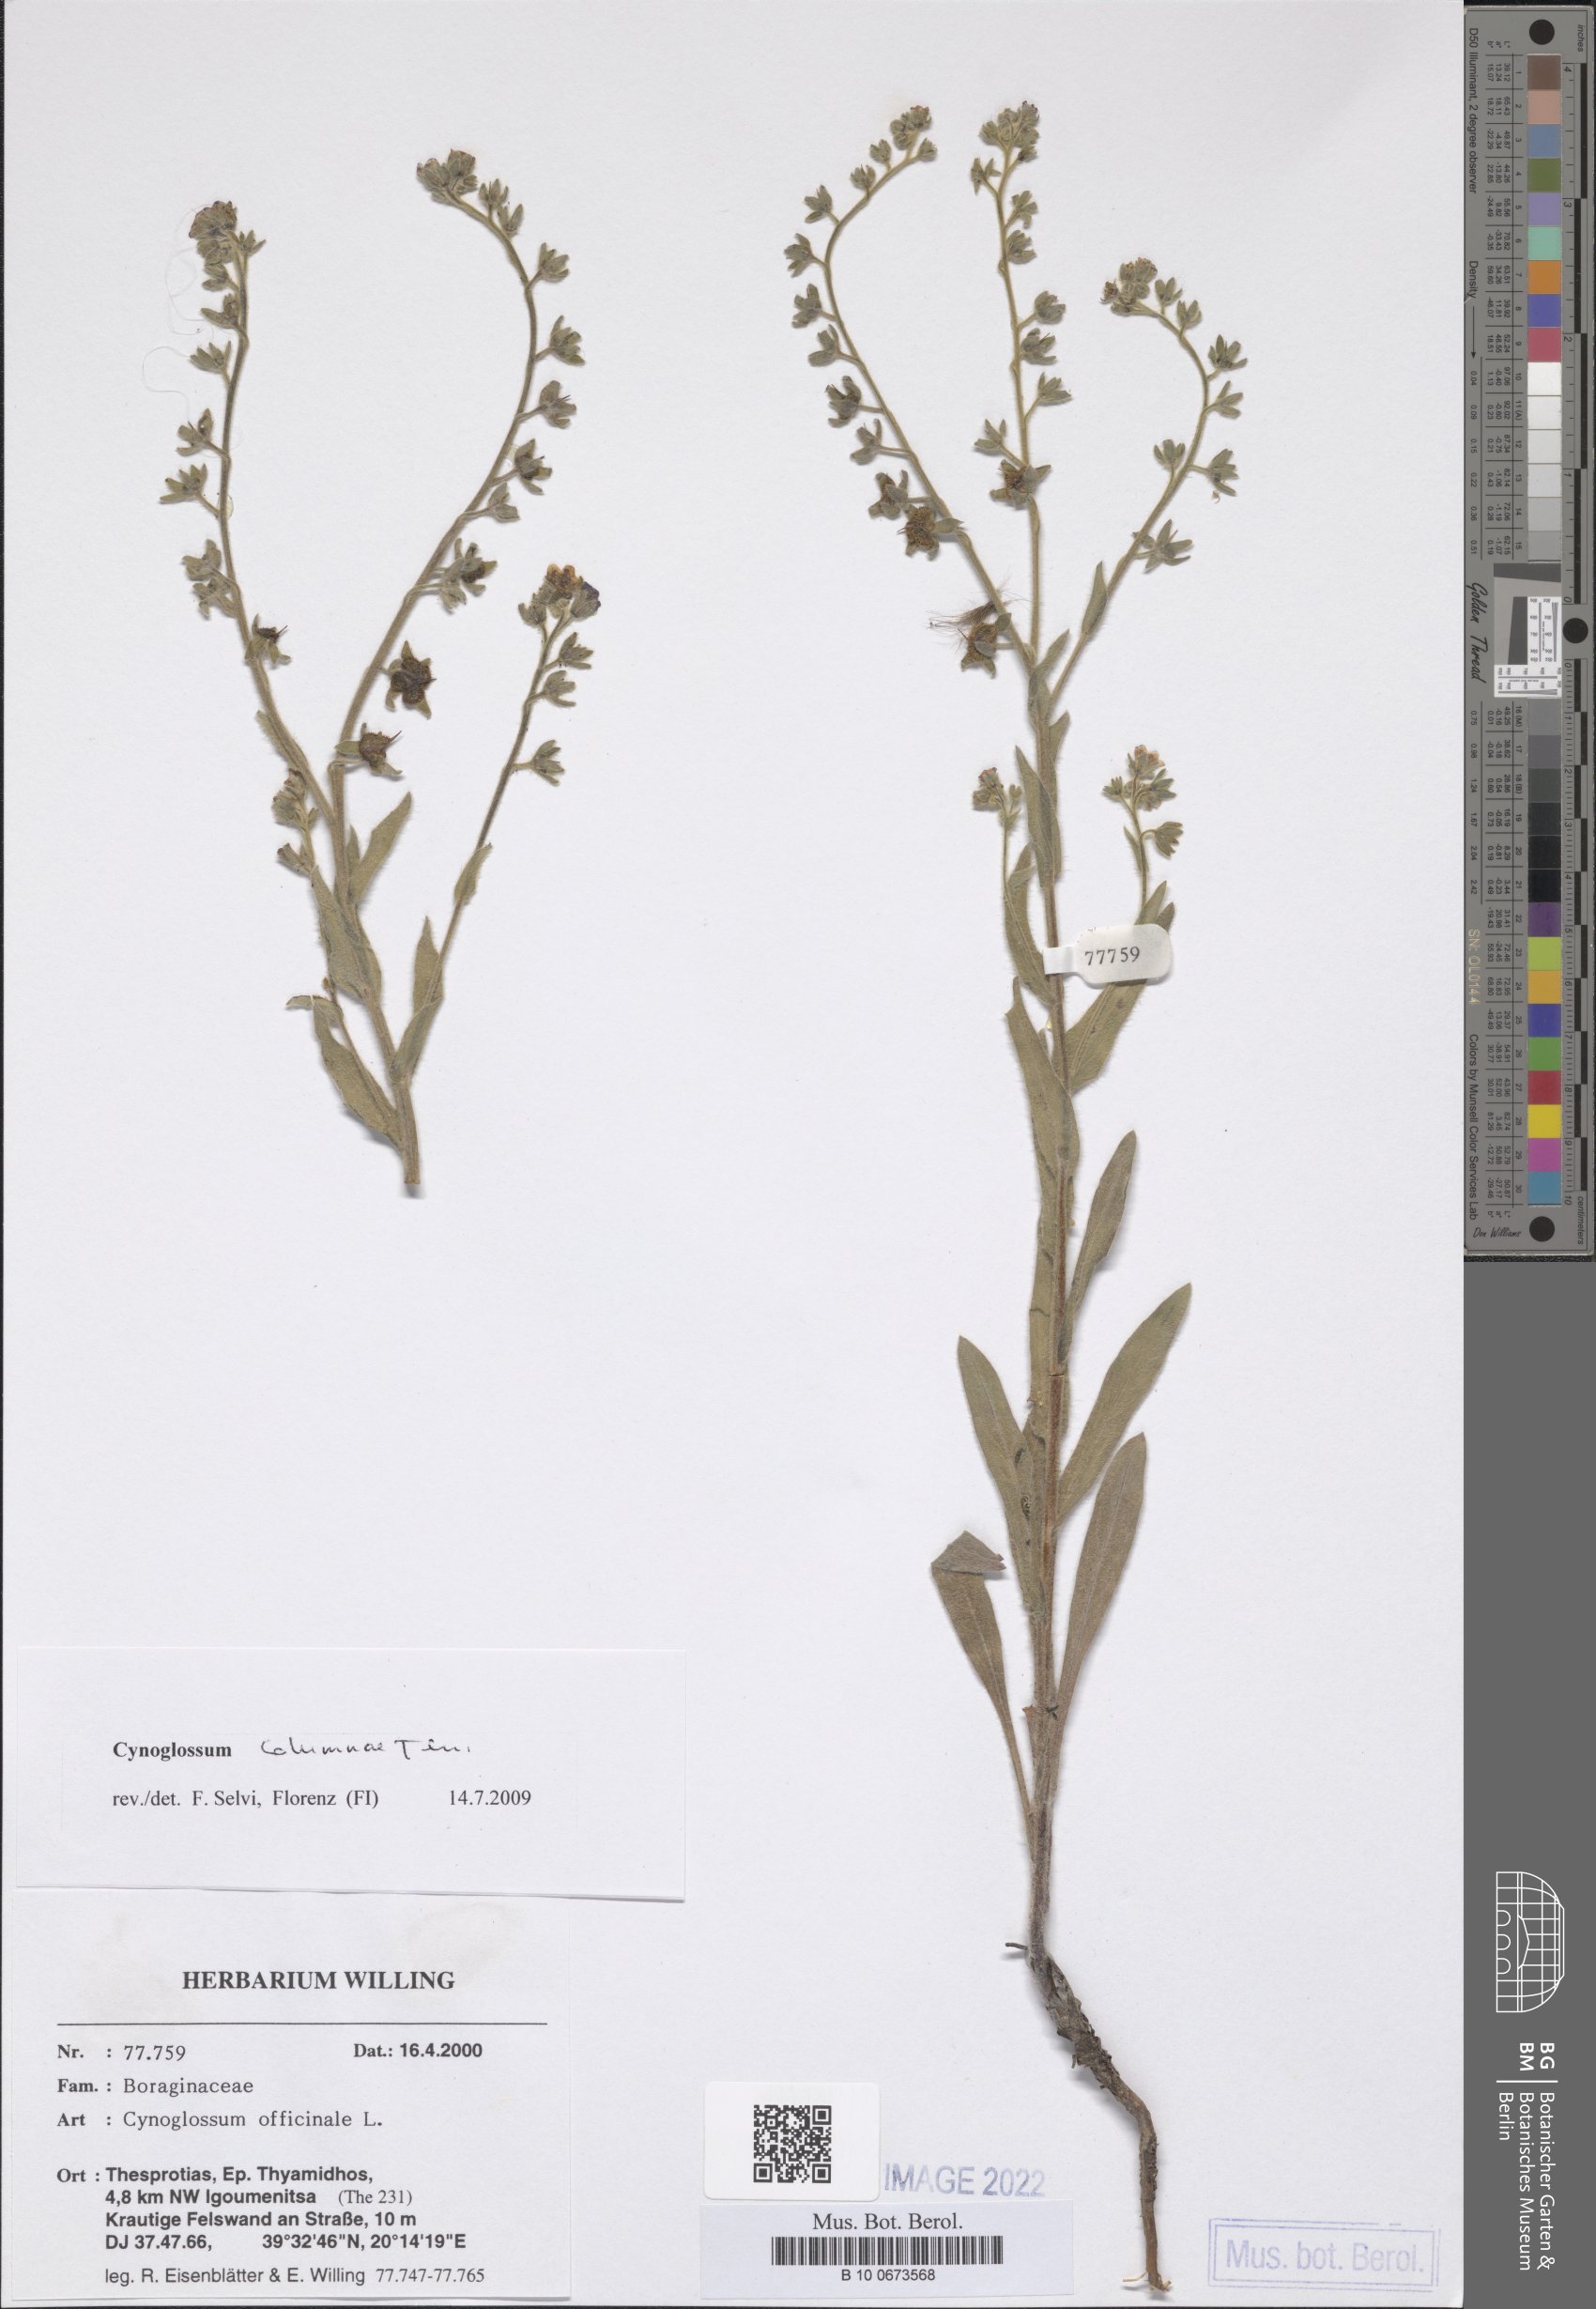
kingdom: Plantae
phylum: Tracheophyta
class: Magnoliopsida
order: Boraginales
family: Boraginaceae
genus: Rindera
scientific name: Rindera columnae
